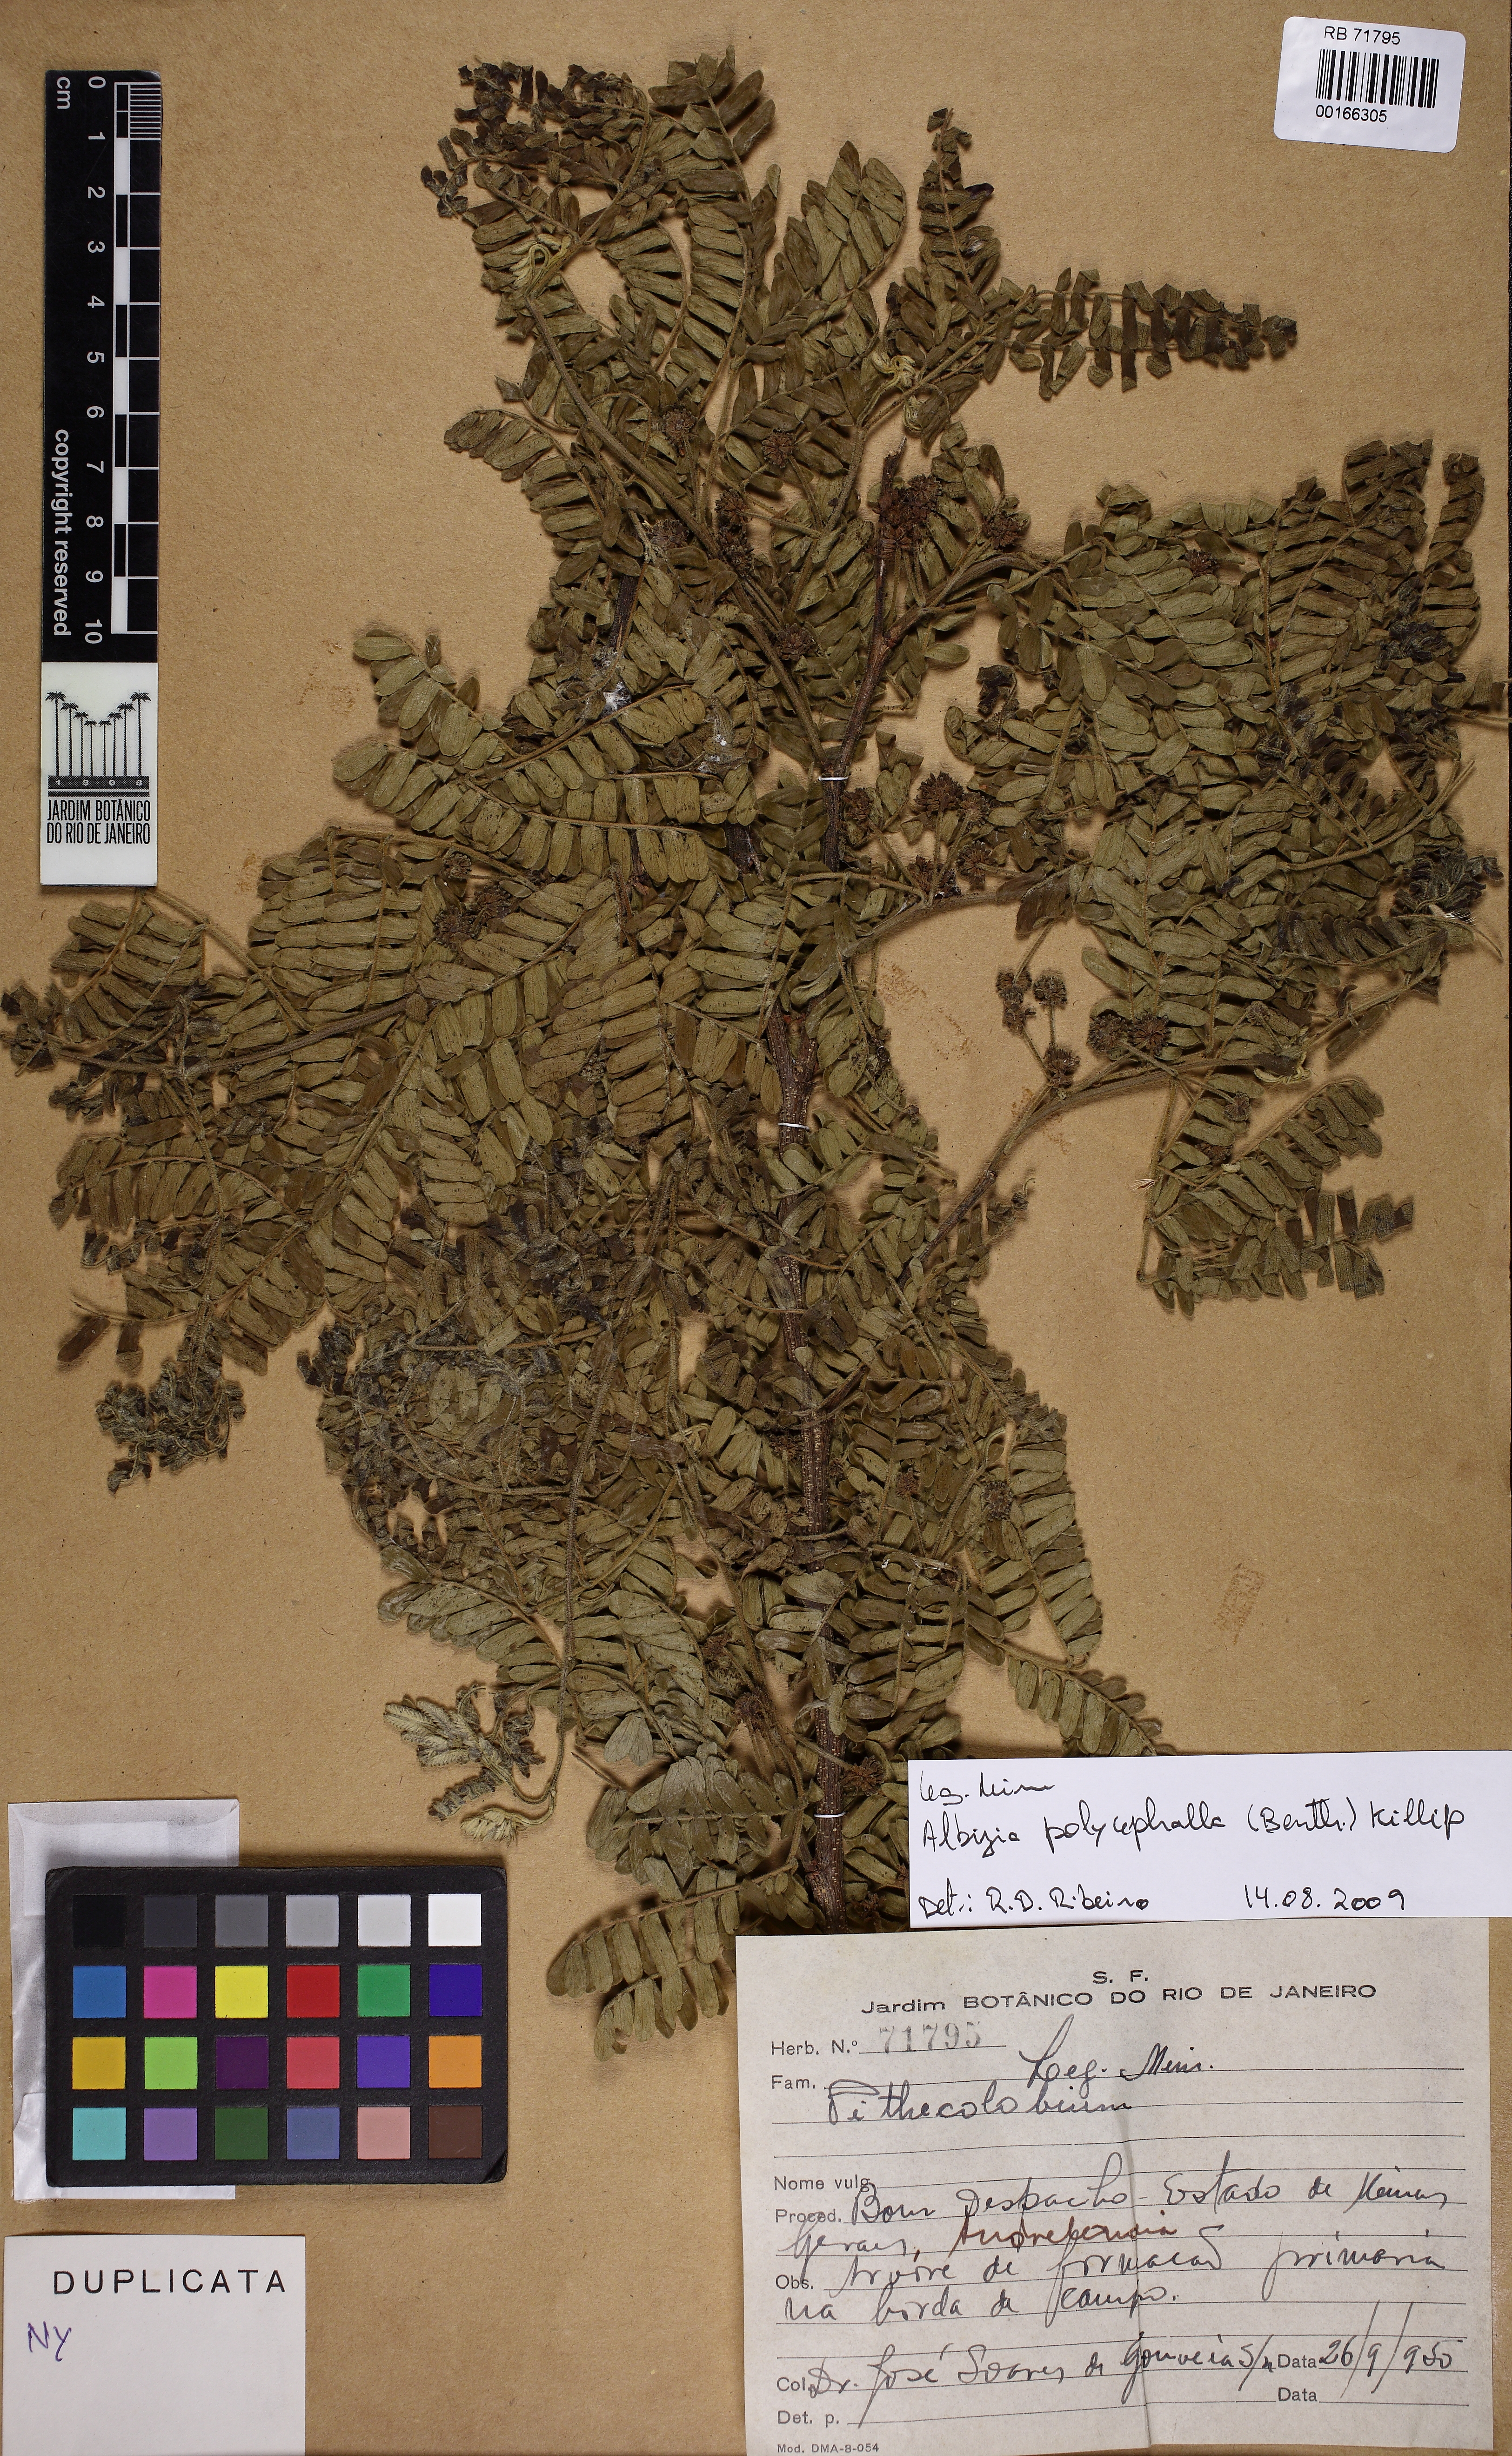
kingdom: Plantae
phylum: Tracheophyta
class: Magnoliopsida
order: Fabales
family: Fabaceae
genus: Pithecellobium
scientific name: Pithecellobium
